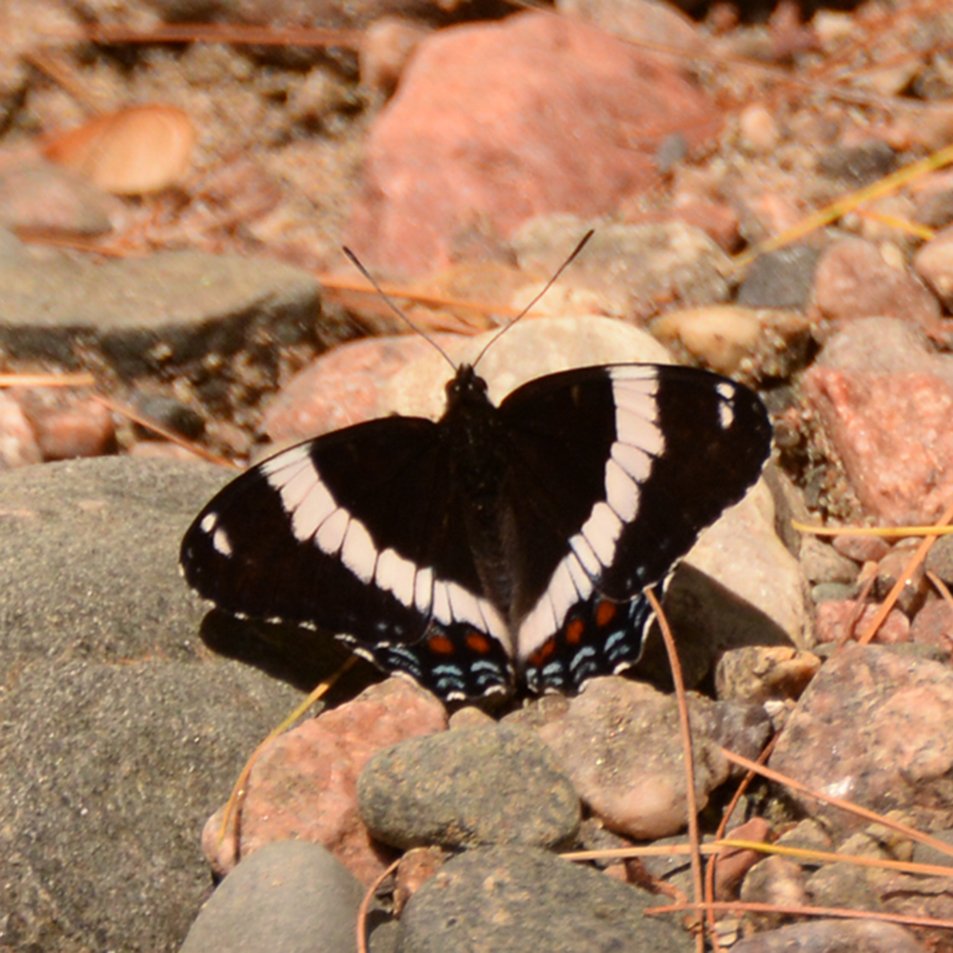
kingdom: Animalia
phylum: Arthropoda
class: Insecta
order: Lepidoptera
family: Nymphalidae
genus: Limenitis
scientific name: Limenitis arthemis
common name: Red-spotted Admiral
